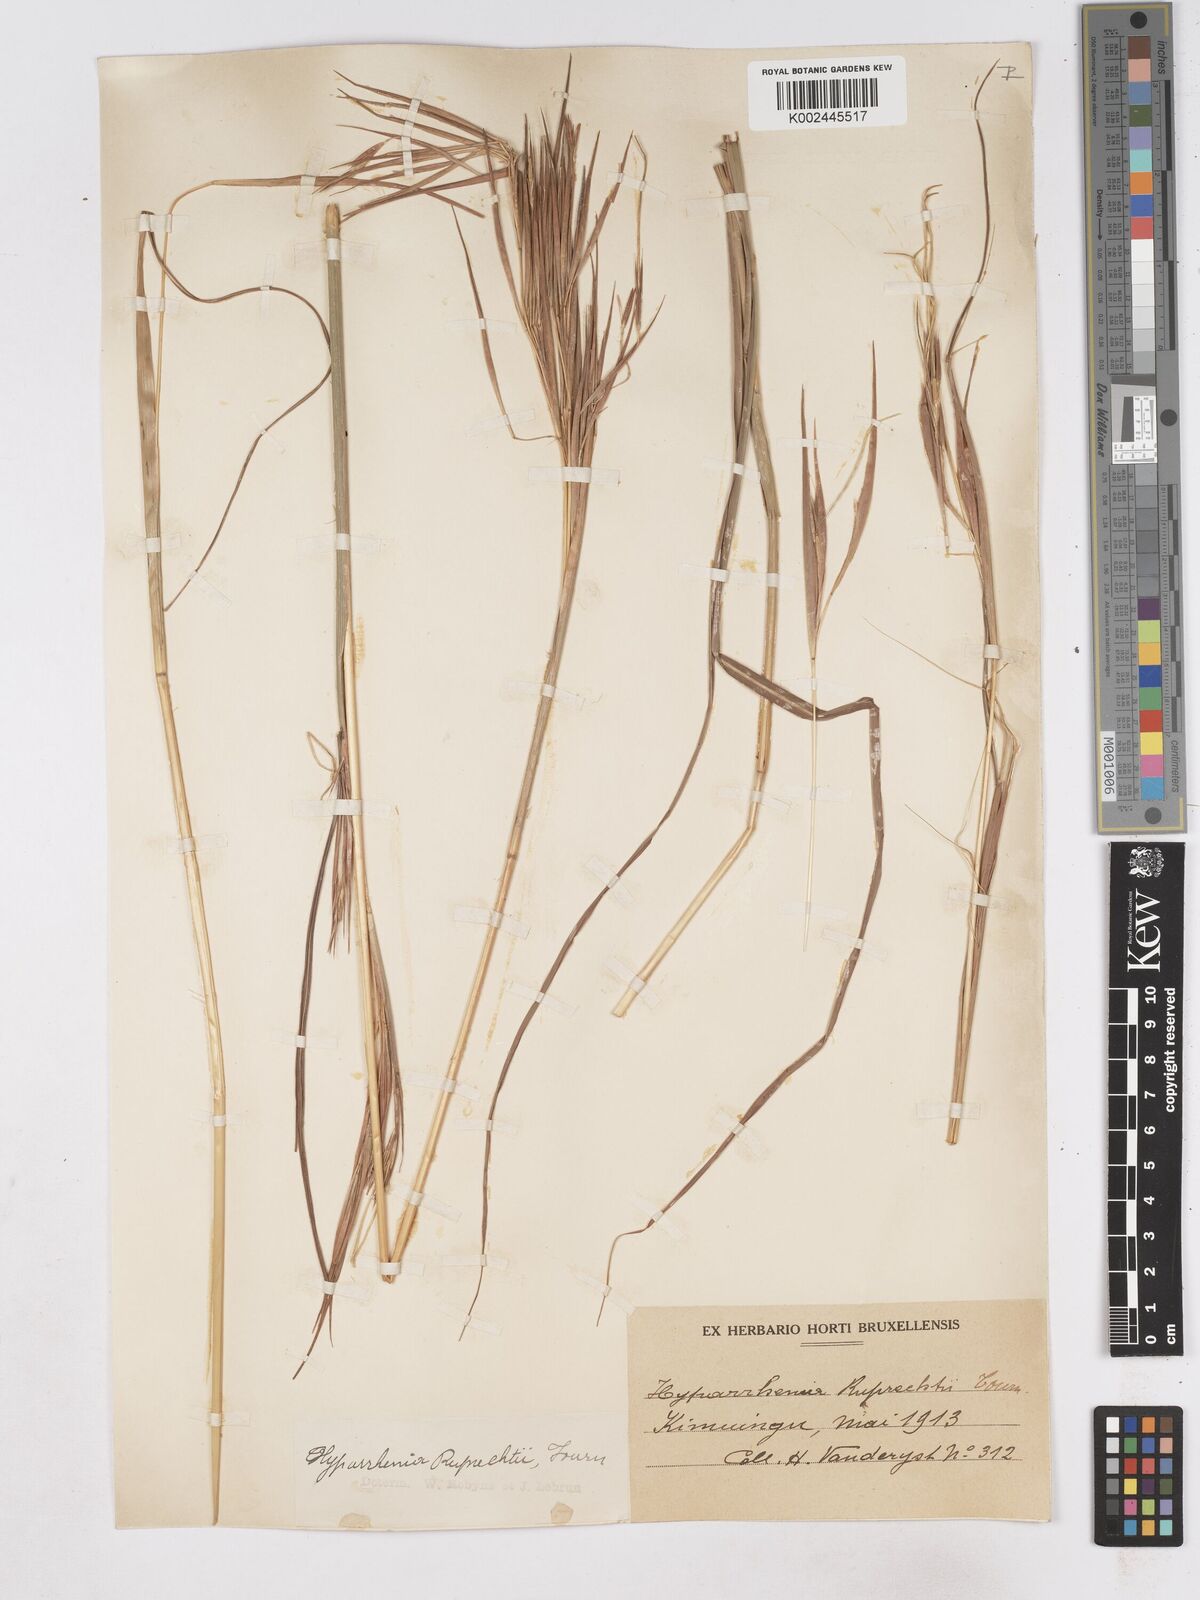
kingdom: Plantae
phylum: Tracheophyta
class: Liliopsida
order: Poales
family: Poaceae
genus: Hyperthelia
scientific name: Hyperthelia dissoluta
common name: Yellow thatching grass
